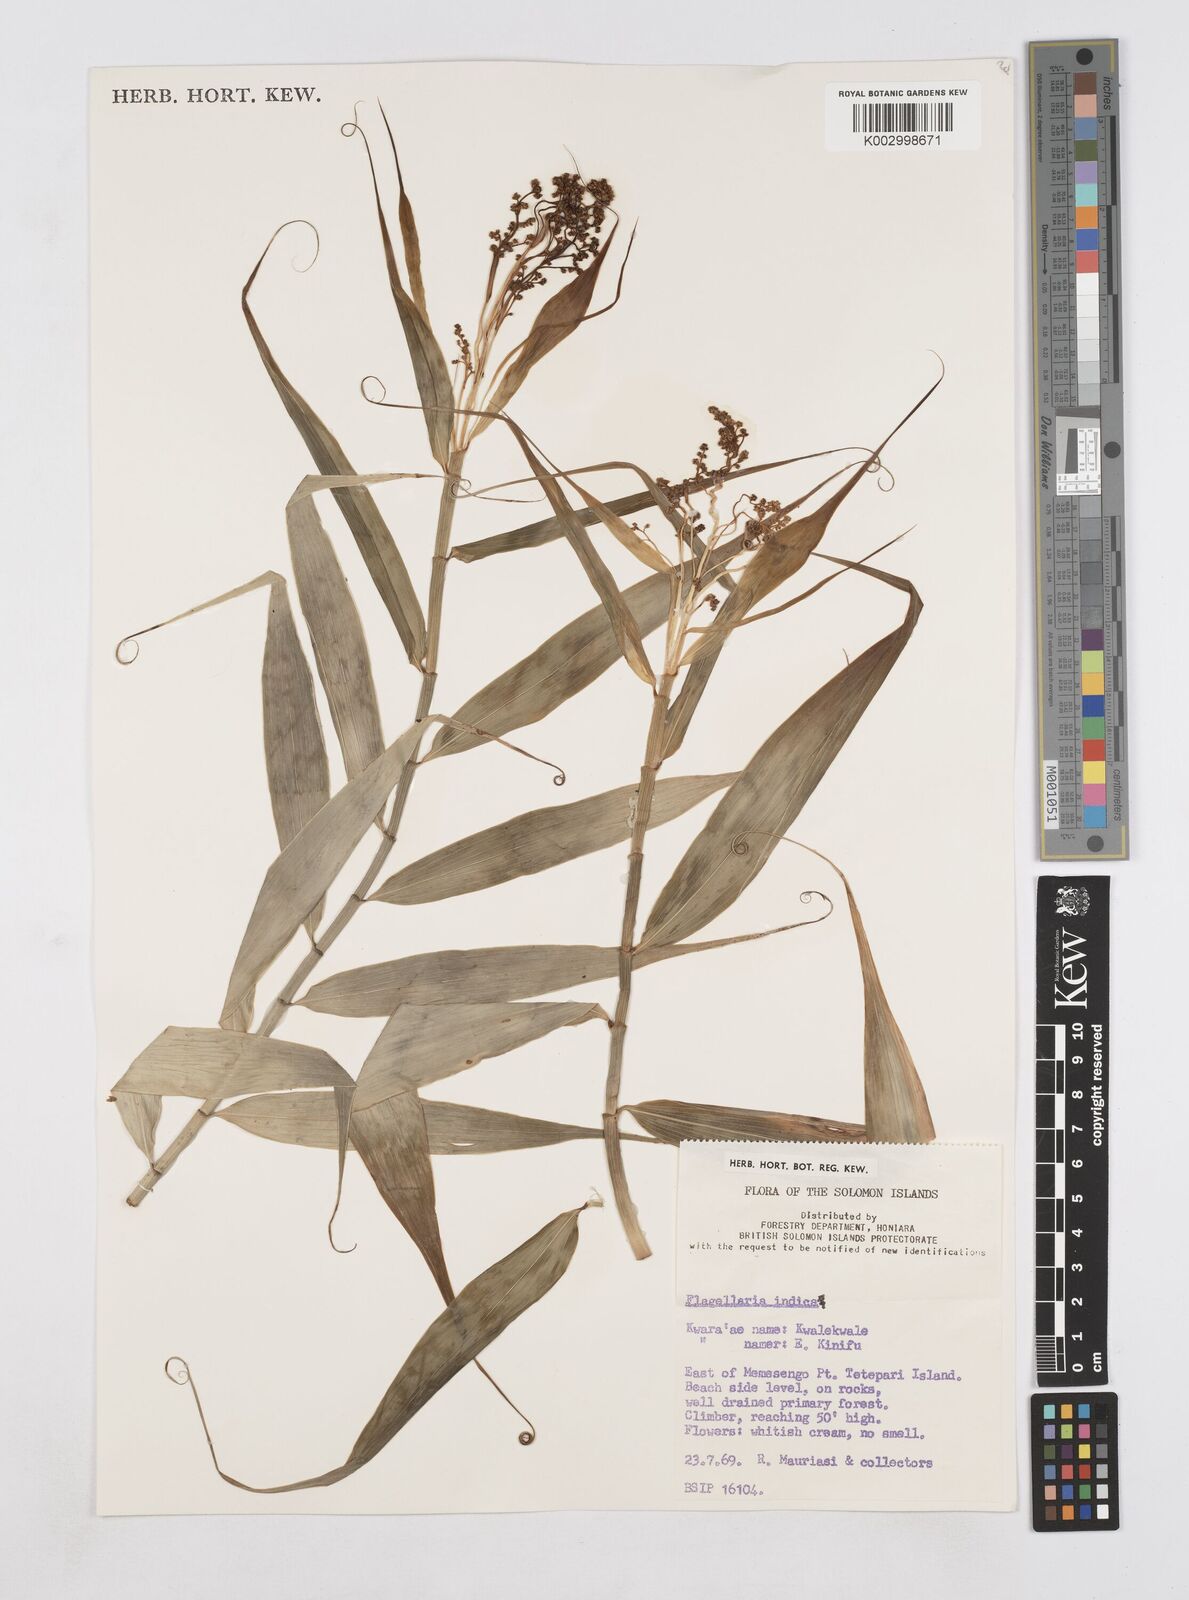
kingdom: Plantae
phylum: Tracheophyta
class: Liliopsida
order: Poales
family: Flagellariaceae
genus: Flagellaria
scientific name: Flagellaria indica
